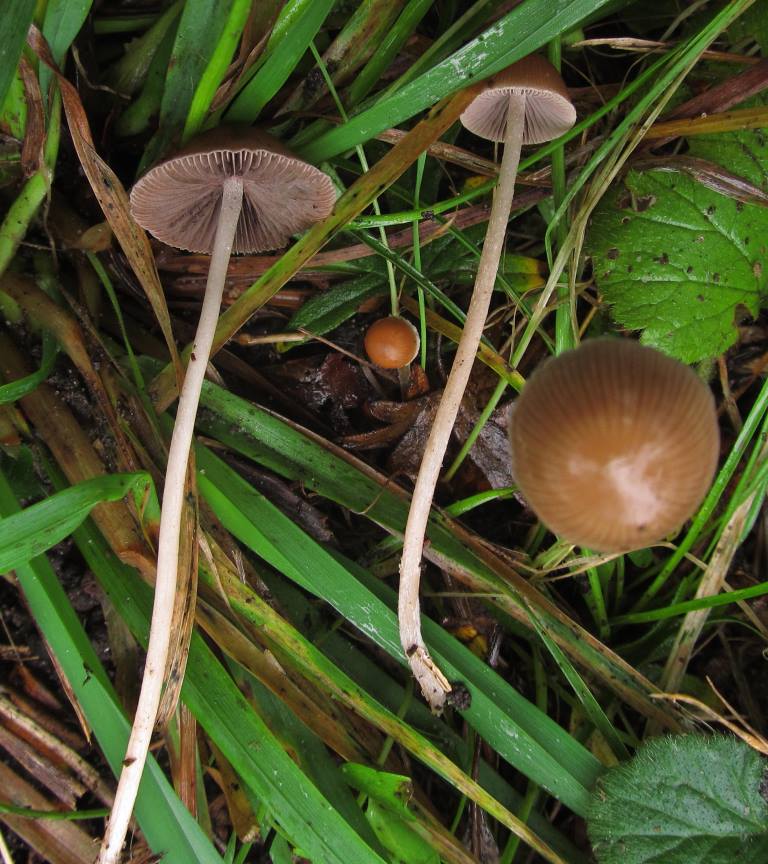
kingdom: Fungi
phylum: Basidiomycota
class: Agaricomycetes
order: Agaricales
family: Psathyrellaceae
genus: Psathyrella
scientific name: Psathyrella microrhiza
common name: rod-mørkhat
